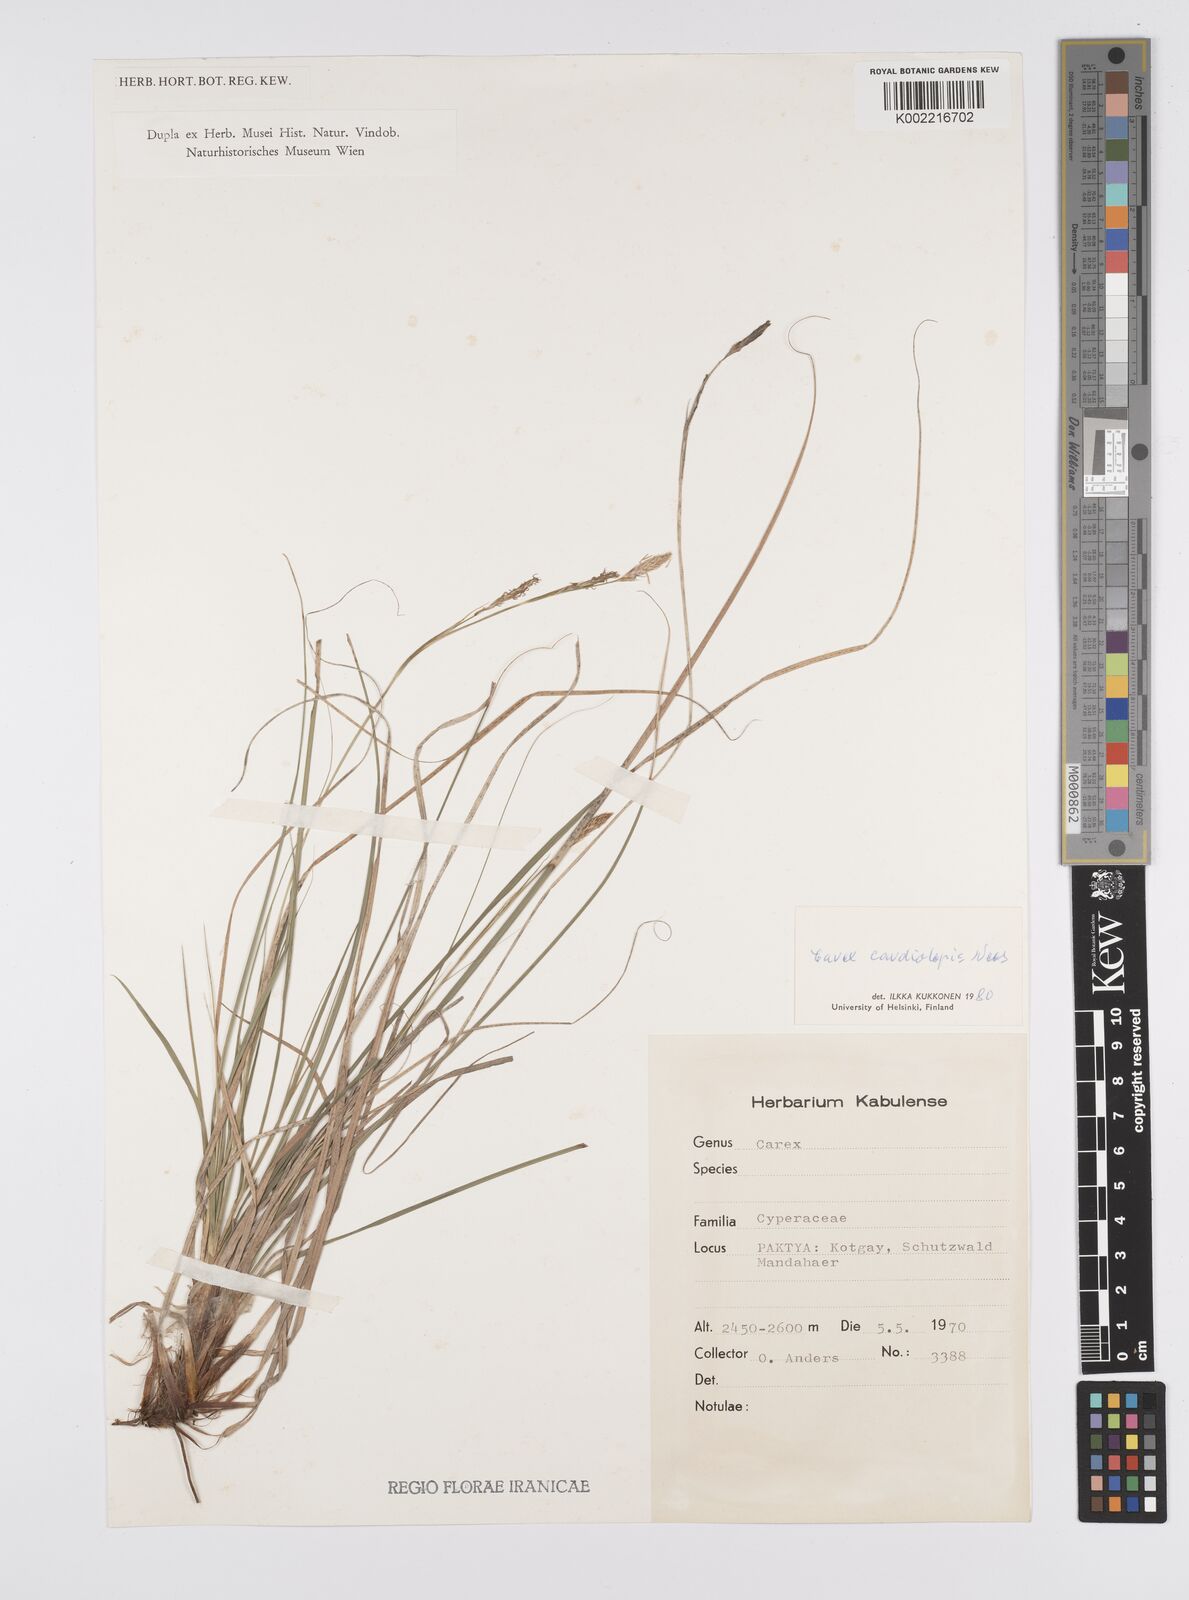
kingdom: Plantae
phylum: Tracheophyta
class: Liliopsida
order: Poales
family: Cyperaceae
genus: Carex
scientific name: Carex cardiolepis
